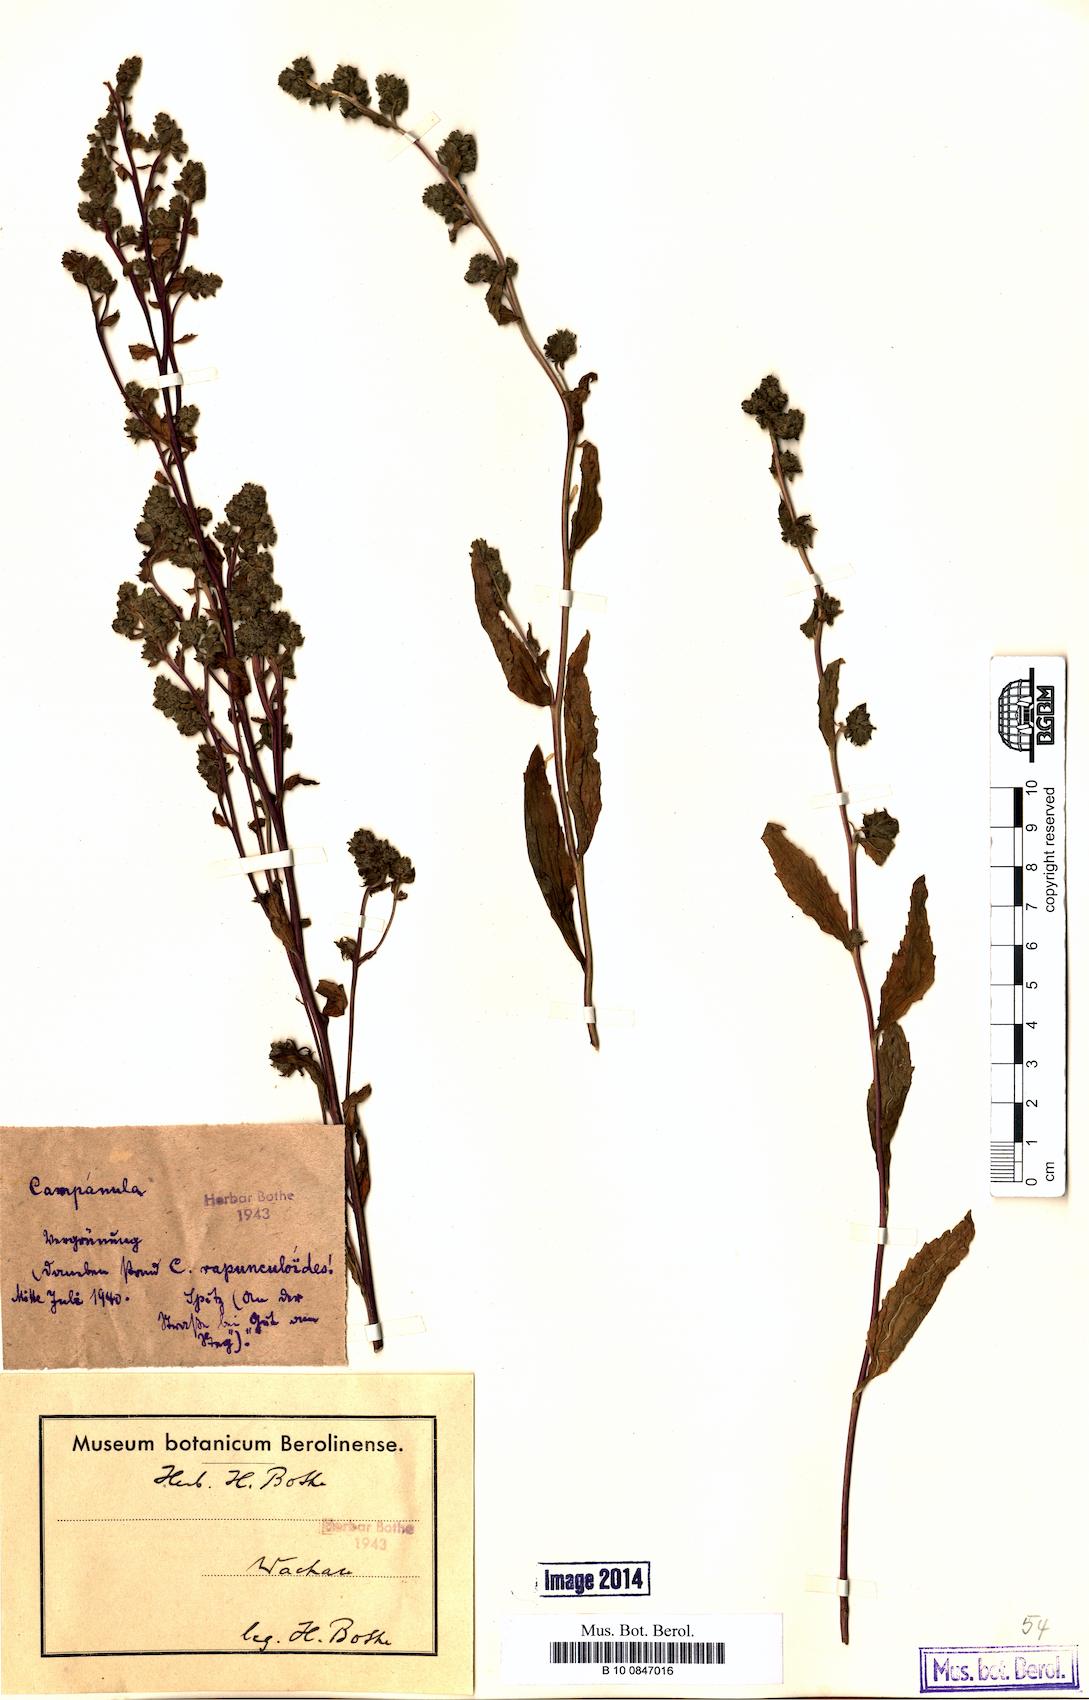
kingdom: Plantae
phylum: Tracheophyta
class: Magnoliopsida
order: Asterales
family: Campanulaceae
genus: Campanula
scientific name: Campanula rapunculoides
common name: Creeping bellflower
